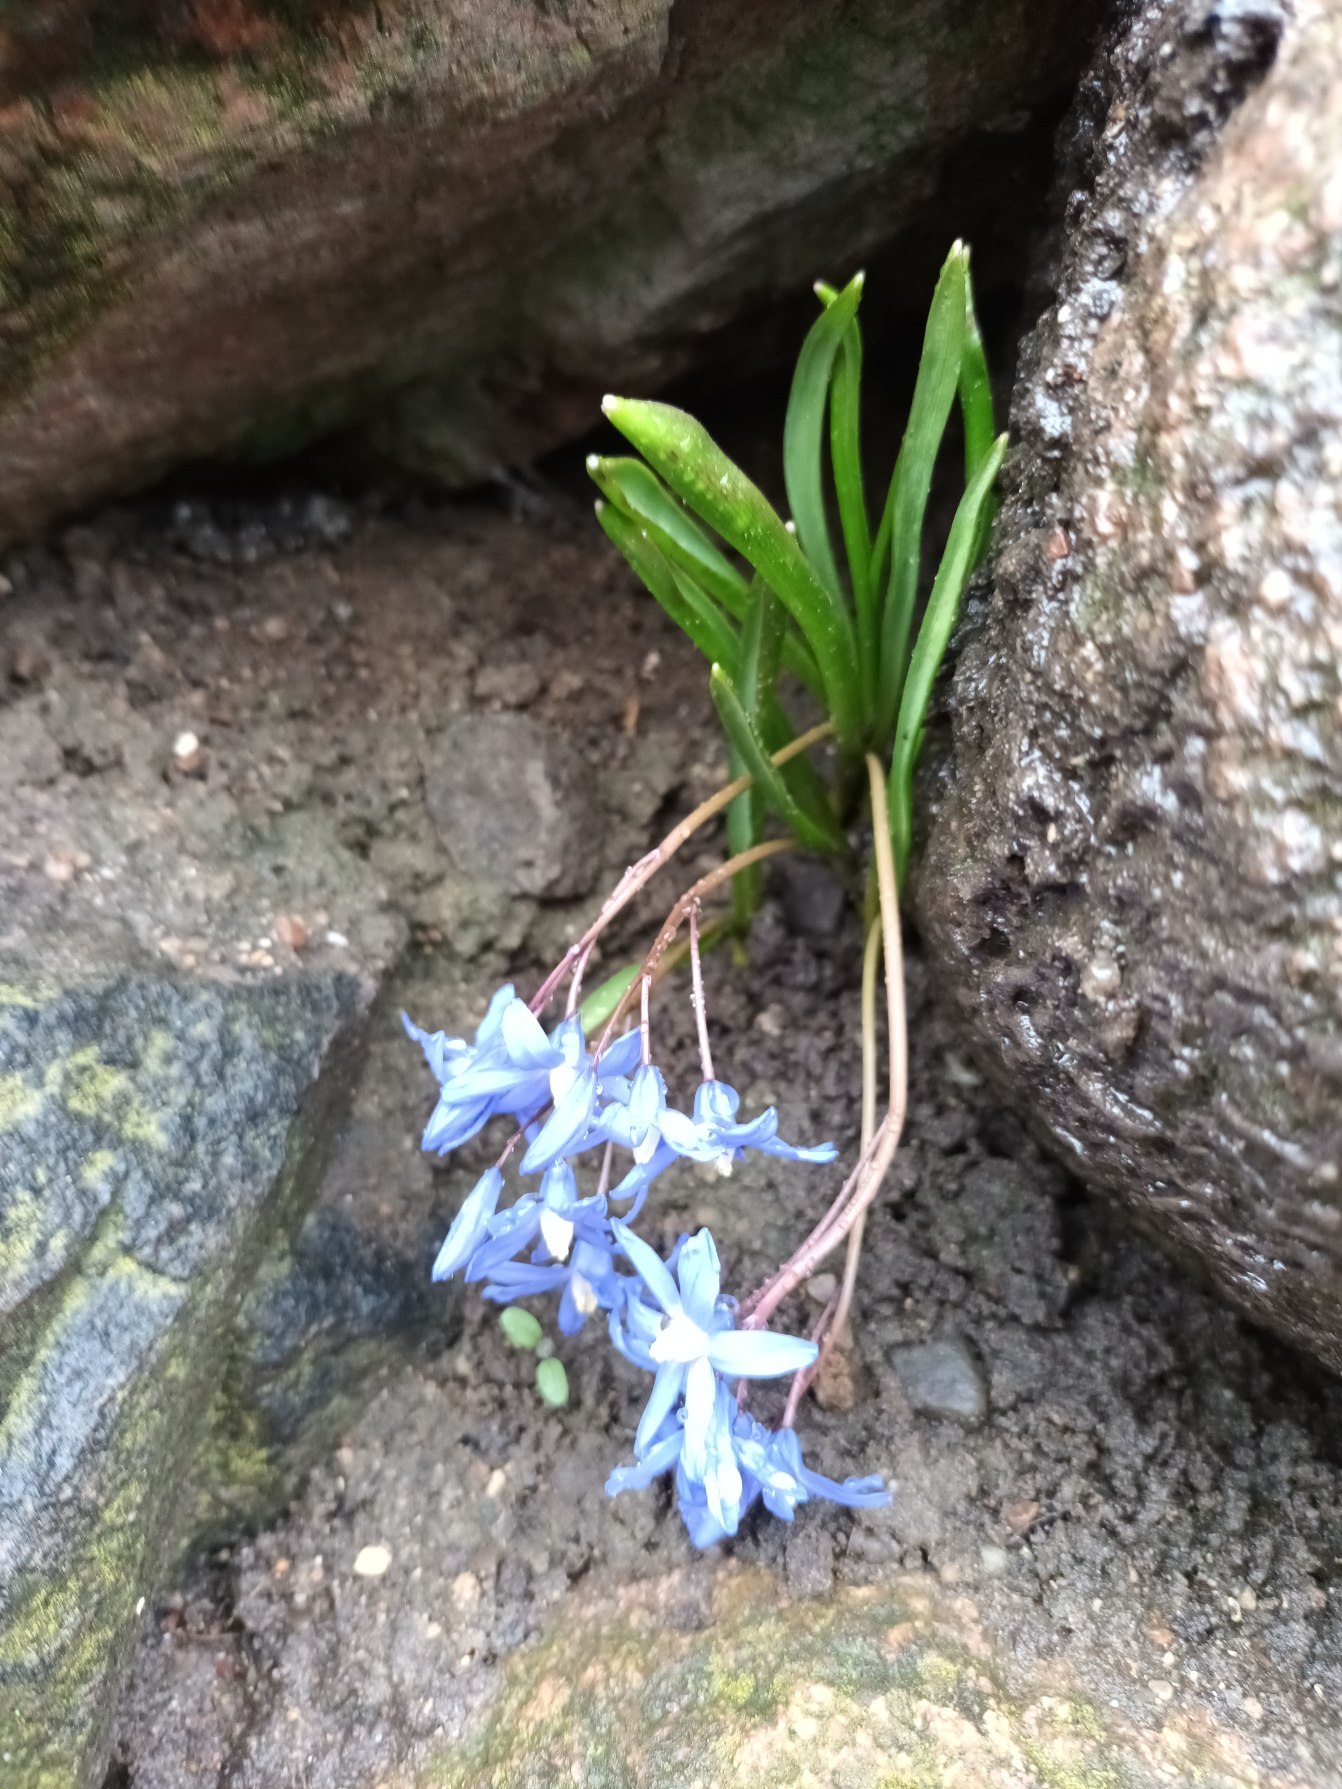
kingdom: Plantae
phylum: Tracheophyta
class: Liliopsida
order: Asparagales
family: Asparagaceae
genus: Scilla
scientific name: Scilla sardensis
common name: Liden snepryd
